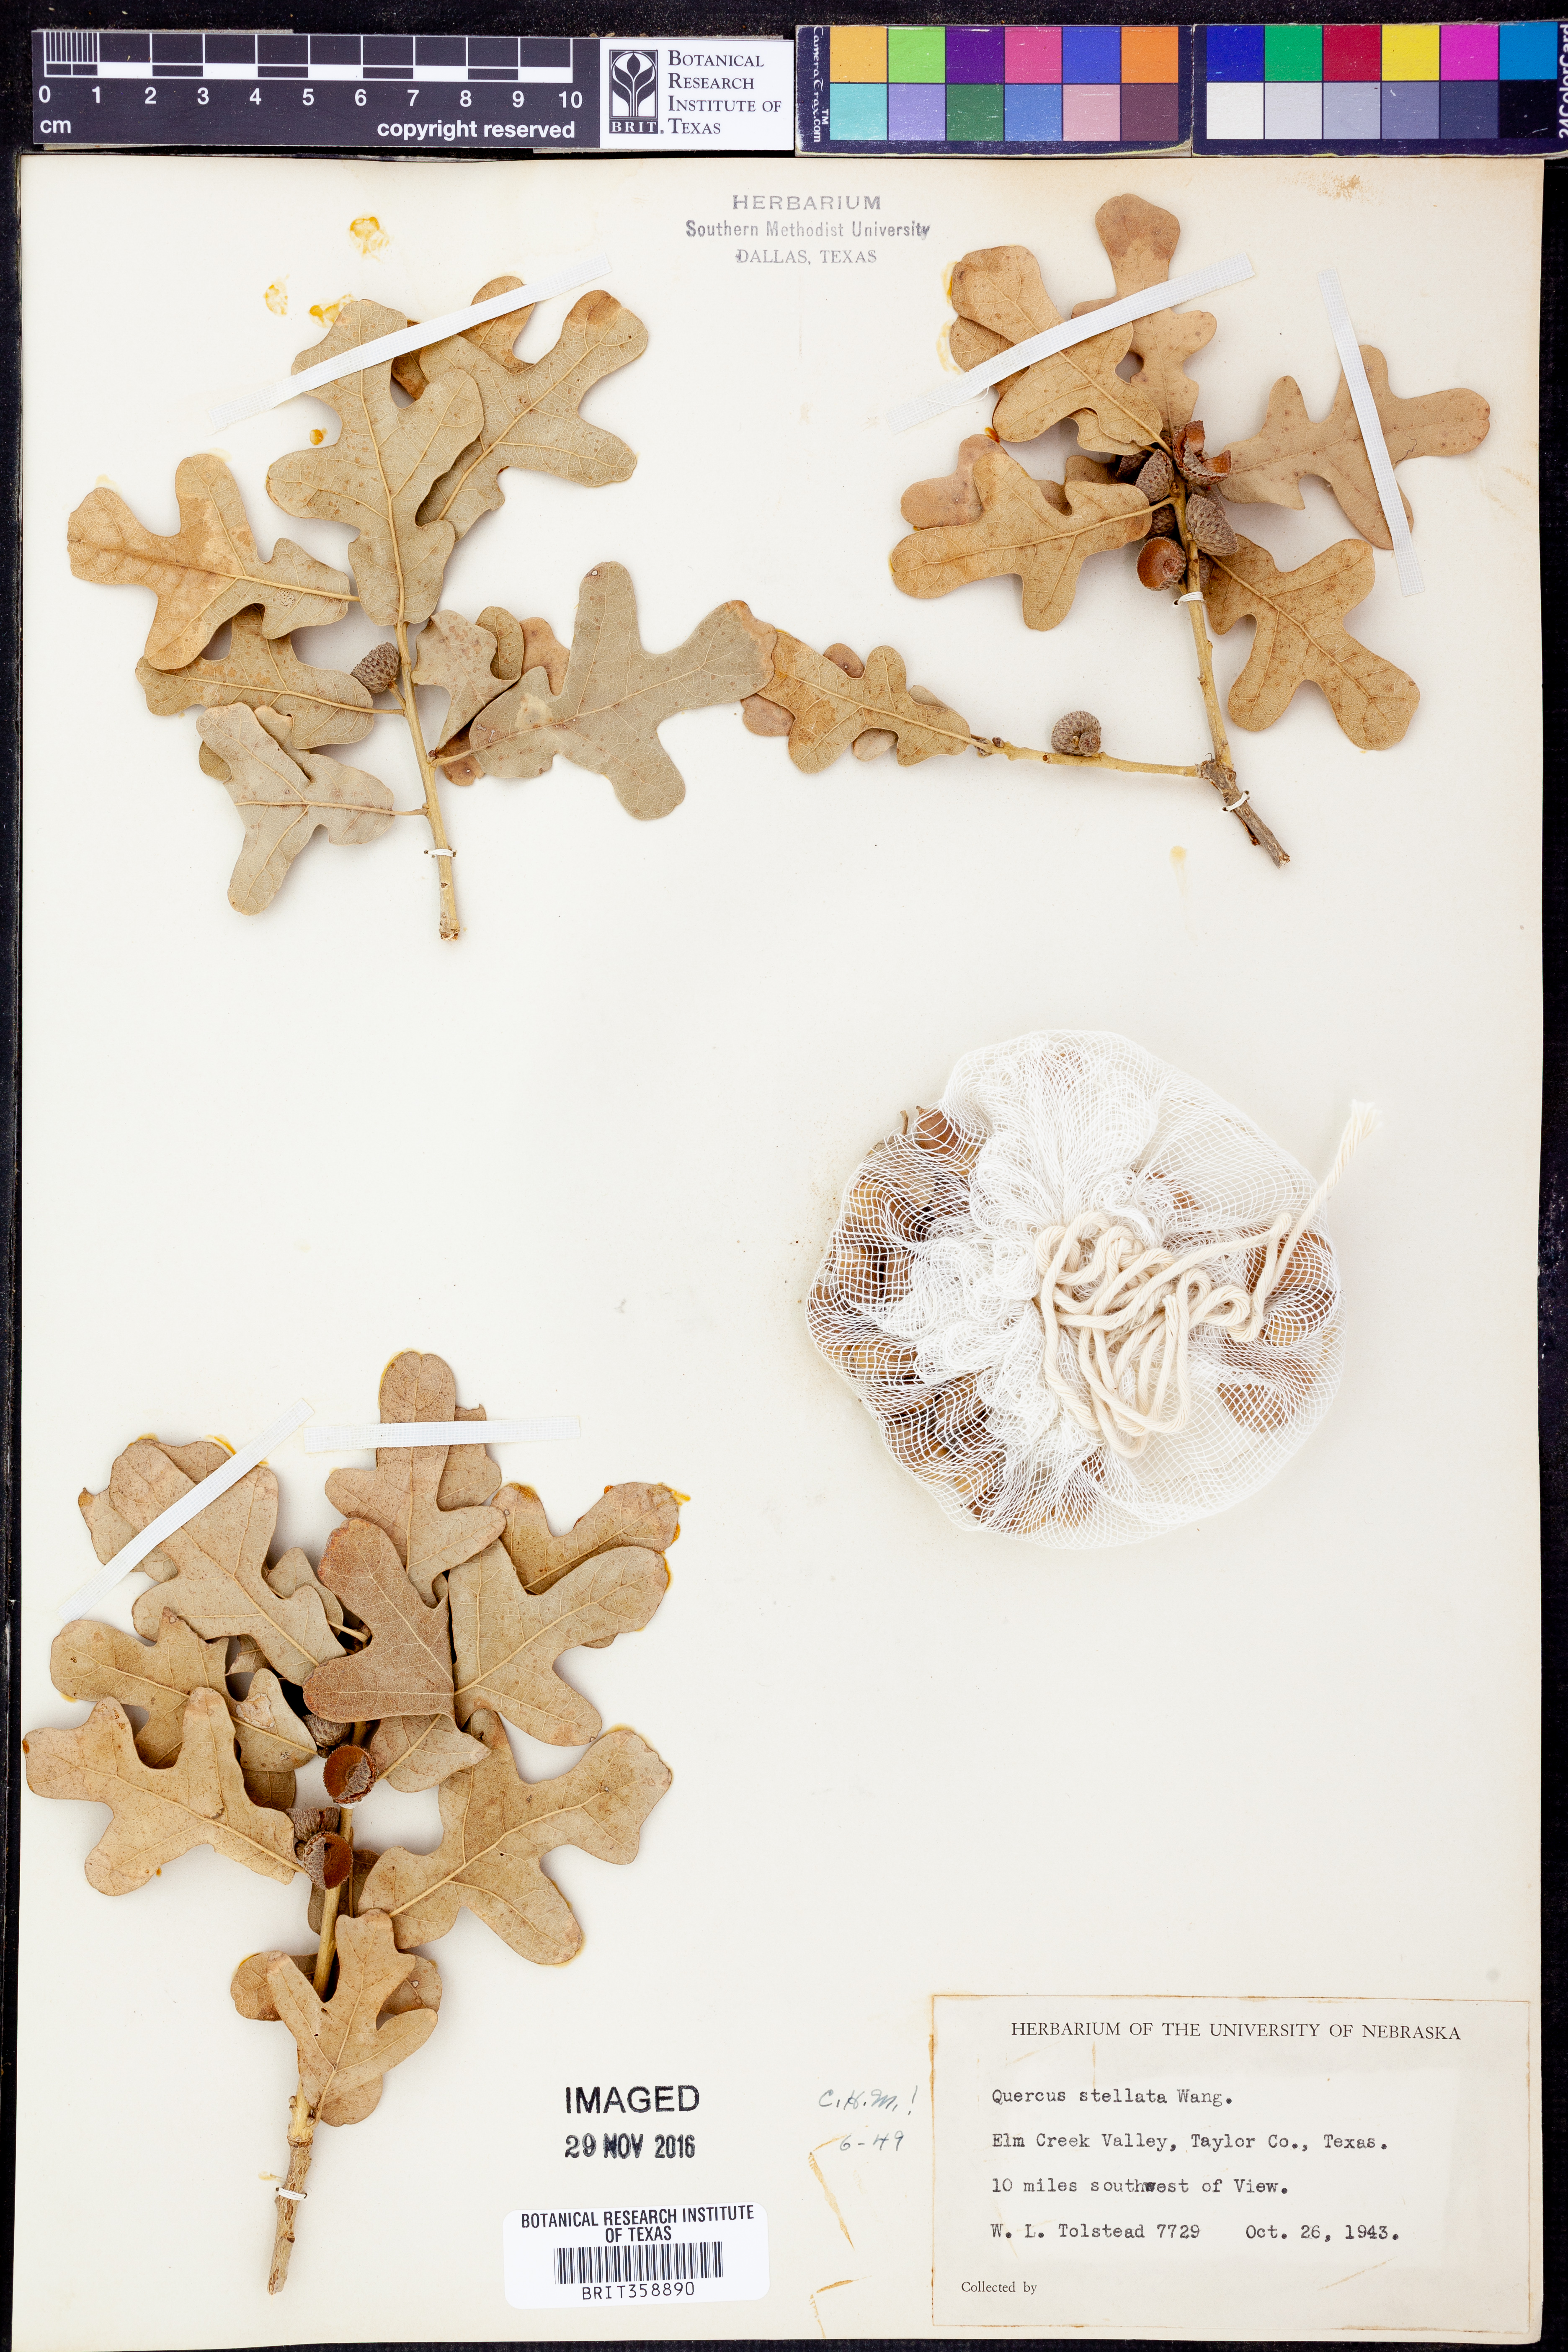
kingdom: Plantae
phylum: Tracheophyta
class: Magnoliopsida
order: Fagales
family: Fagaceae
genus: Quercus
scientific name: Quercus stellata
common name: Post oak
